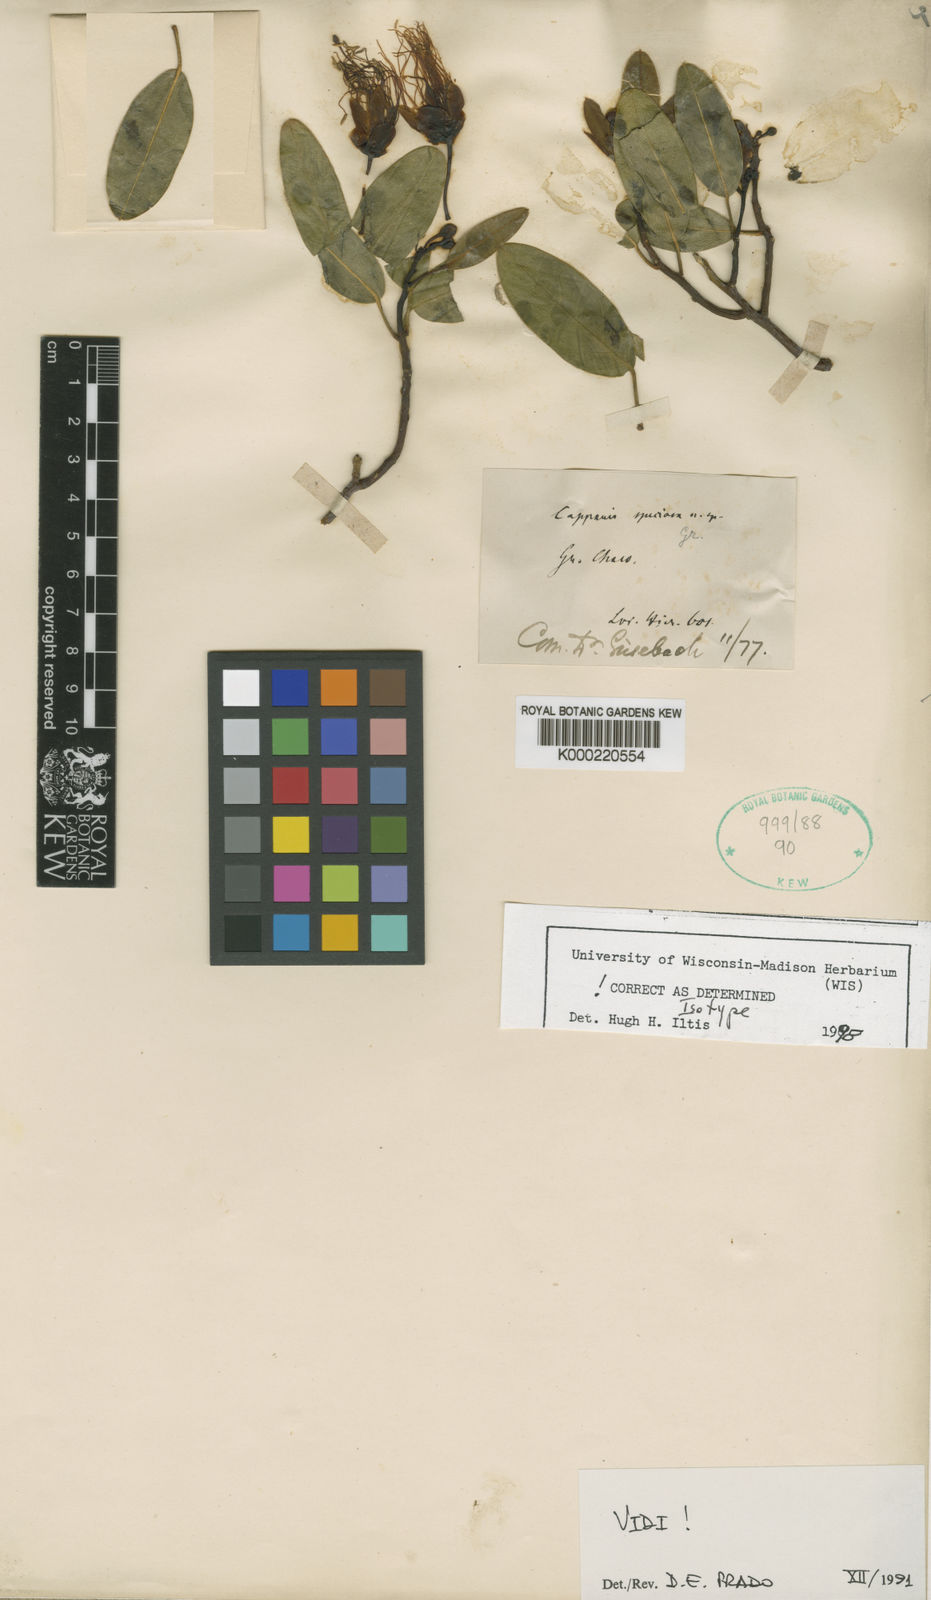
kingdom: Plantae
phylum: Tracheophyta
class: Magnoliopsida
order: Brassicales
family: Capparaceae
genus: Anisocapparis
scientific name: Anisocapparis speciosa
